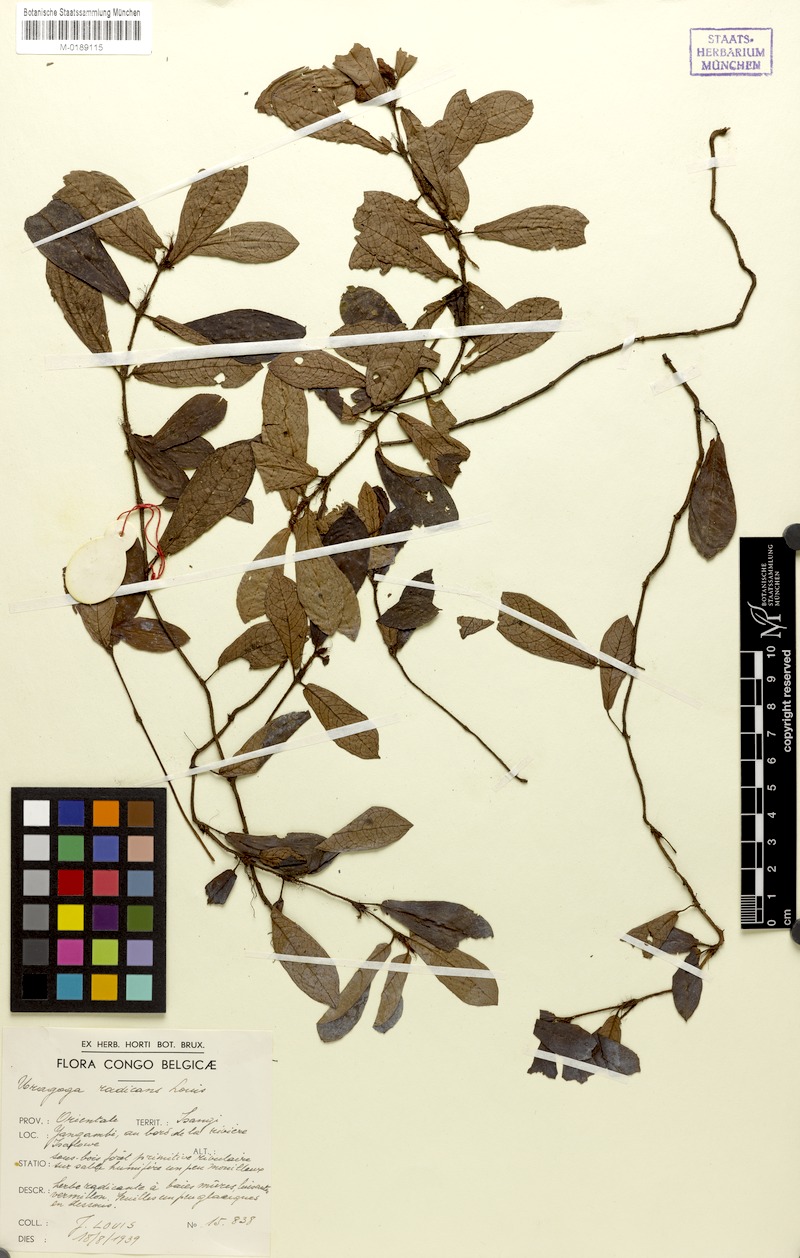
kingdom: Plantae
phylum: Tracheophyta
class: Magnoliopsida
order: Gentianales
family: Rubiaceae
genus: Psychotria
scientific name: Psychotria minuta
